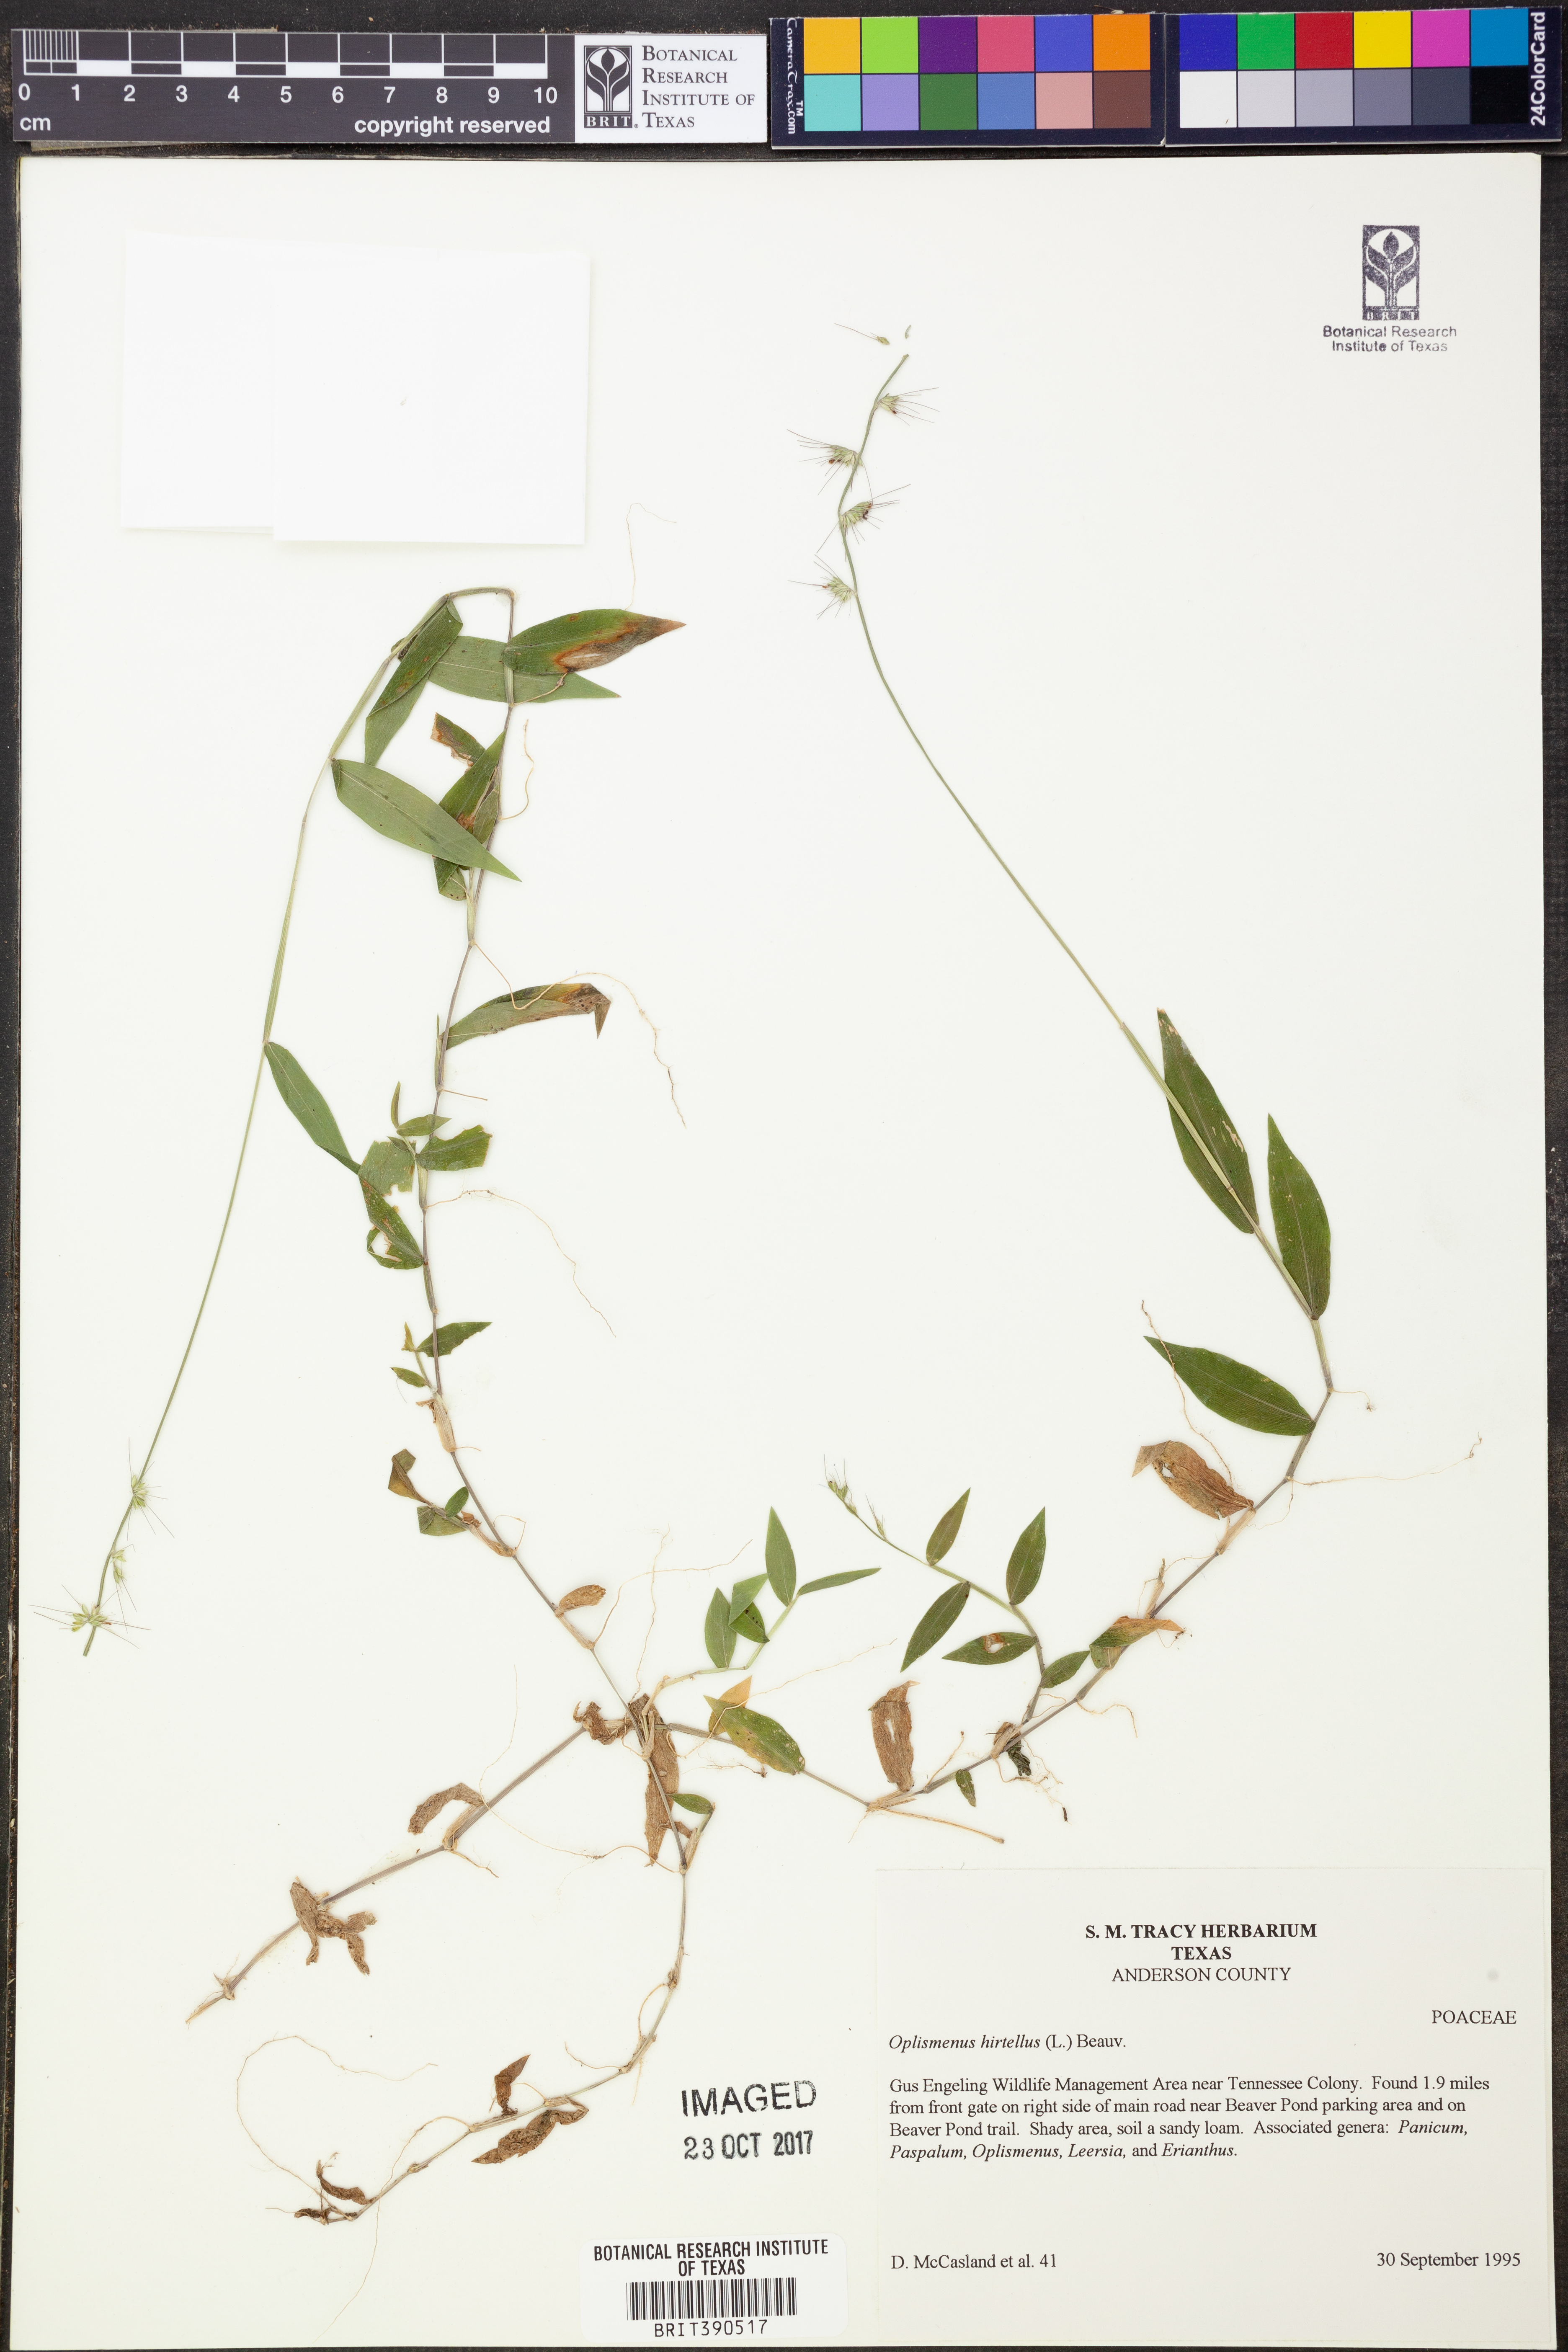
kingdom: Plantae
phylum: Tracheophyta
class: Liliopsida
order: Poales
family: Poaceae
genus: Oplismenus
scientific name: Oplismenus hirtellus
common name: Basketgrass
